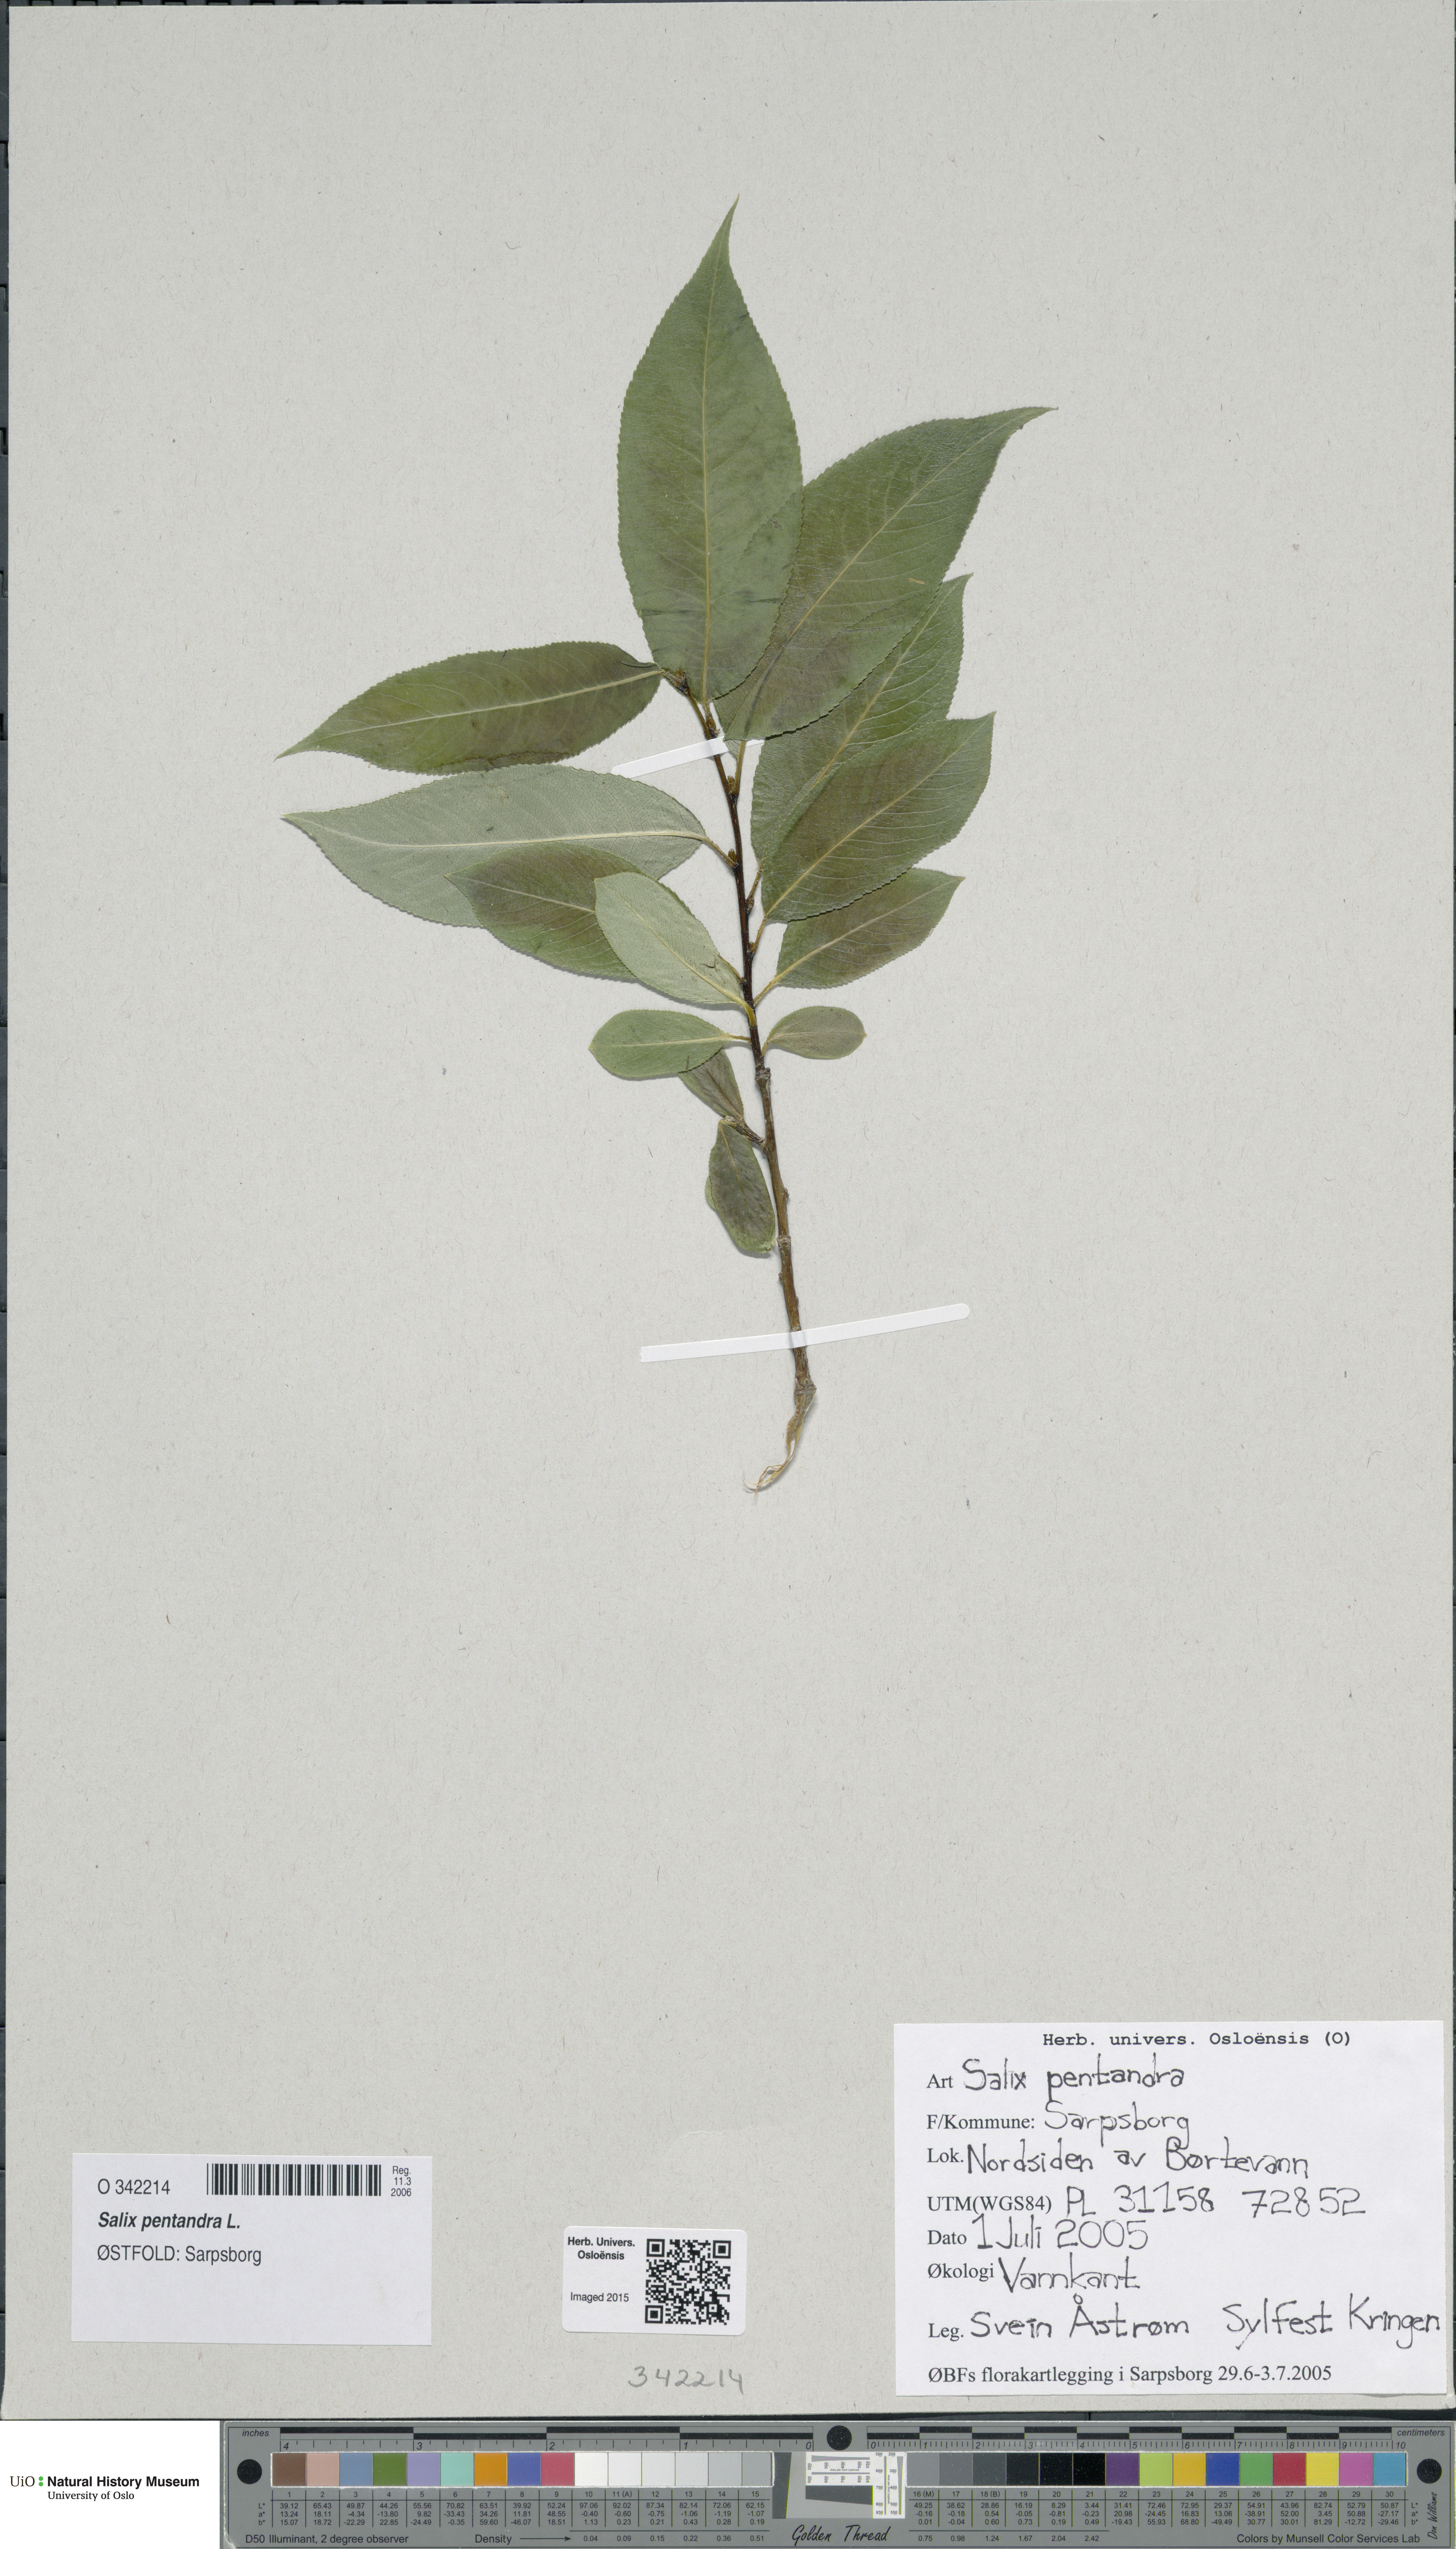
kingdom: Plantae
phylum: Tracheophyta
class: Magnoliopsida
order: Malpighiales
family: Salicaceae
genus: Salix
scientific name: Salix pentandra
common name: Bay willow
